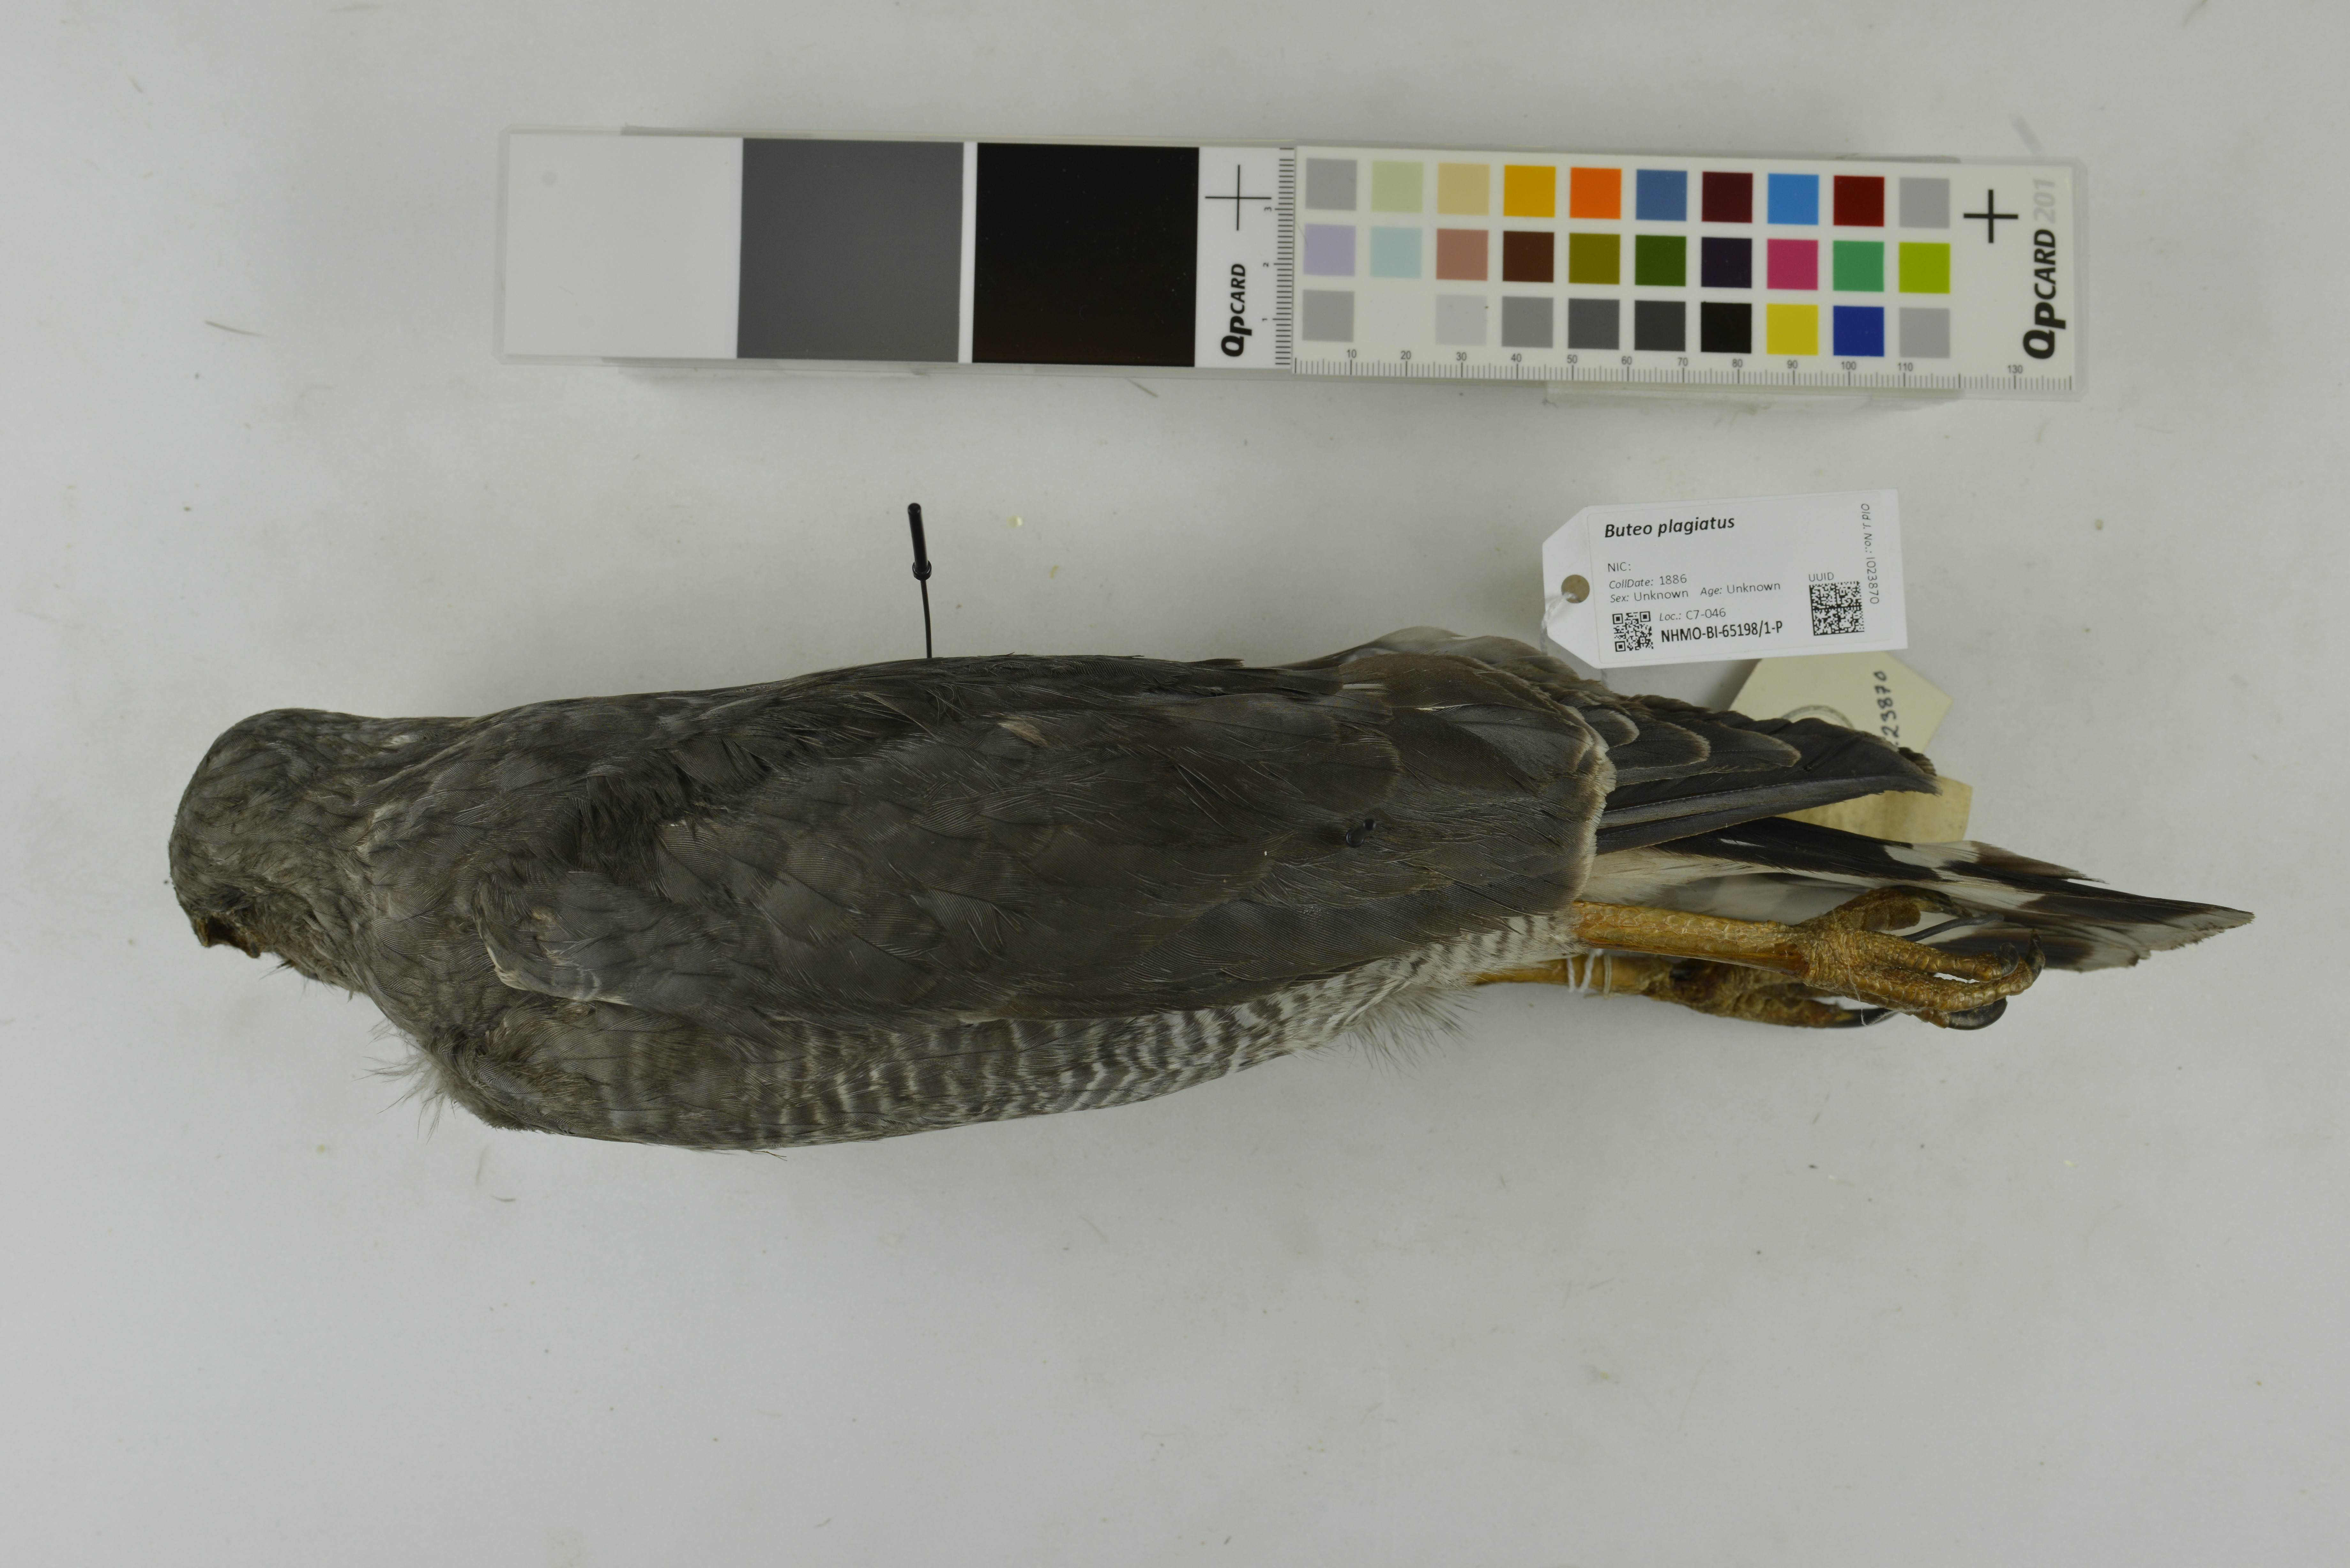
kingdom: Animalia
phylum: Chordata
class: Aves
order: Accipitriformes
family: Accipitridae
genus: Buteo
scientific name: Buteo nitidus
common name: Grey-lined hawk
